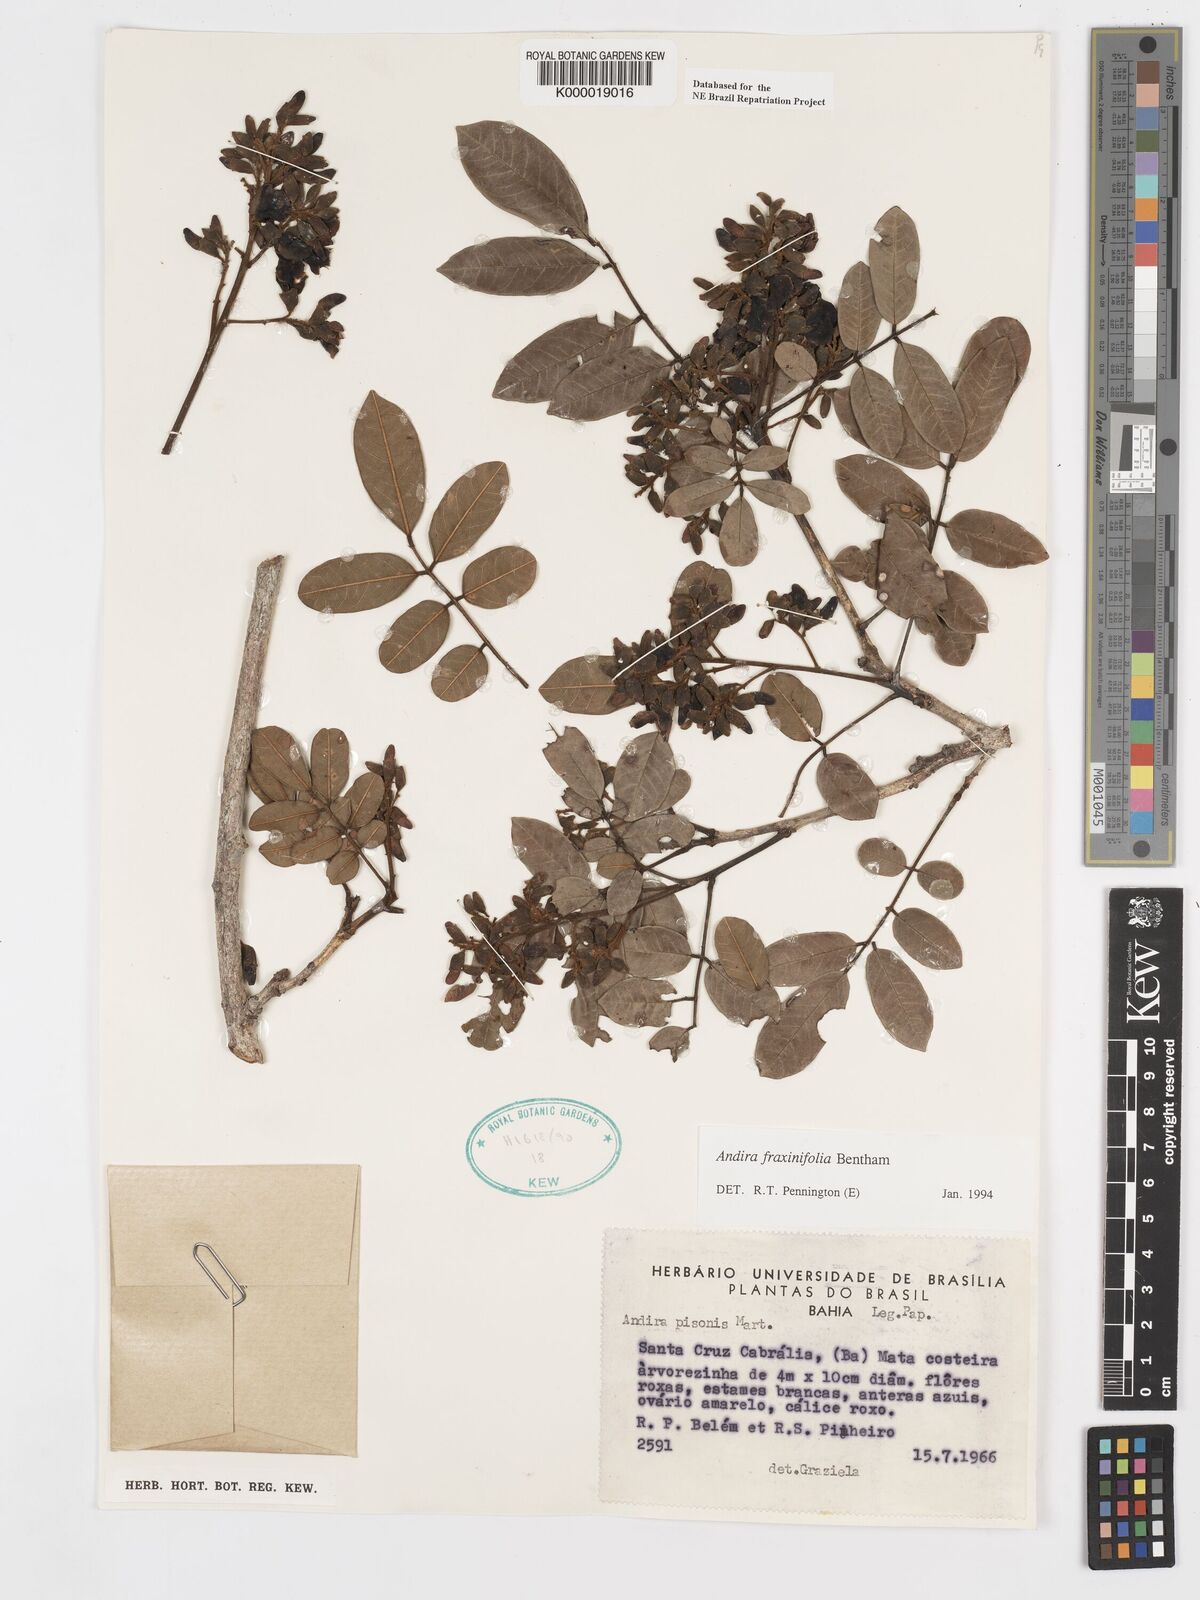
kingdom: Plantae
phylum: Tracheophyta
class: Magnoliopsida
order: Fabales
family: Fabaceae
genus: Andira
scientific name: Andira fraxinifolia
